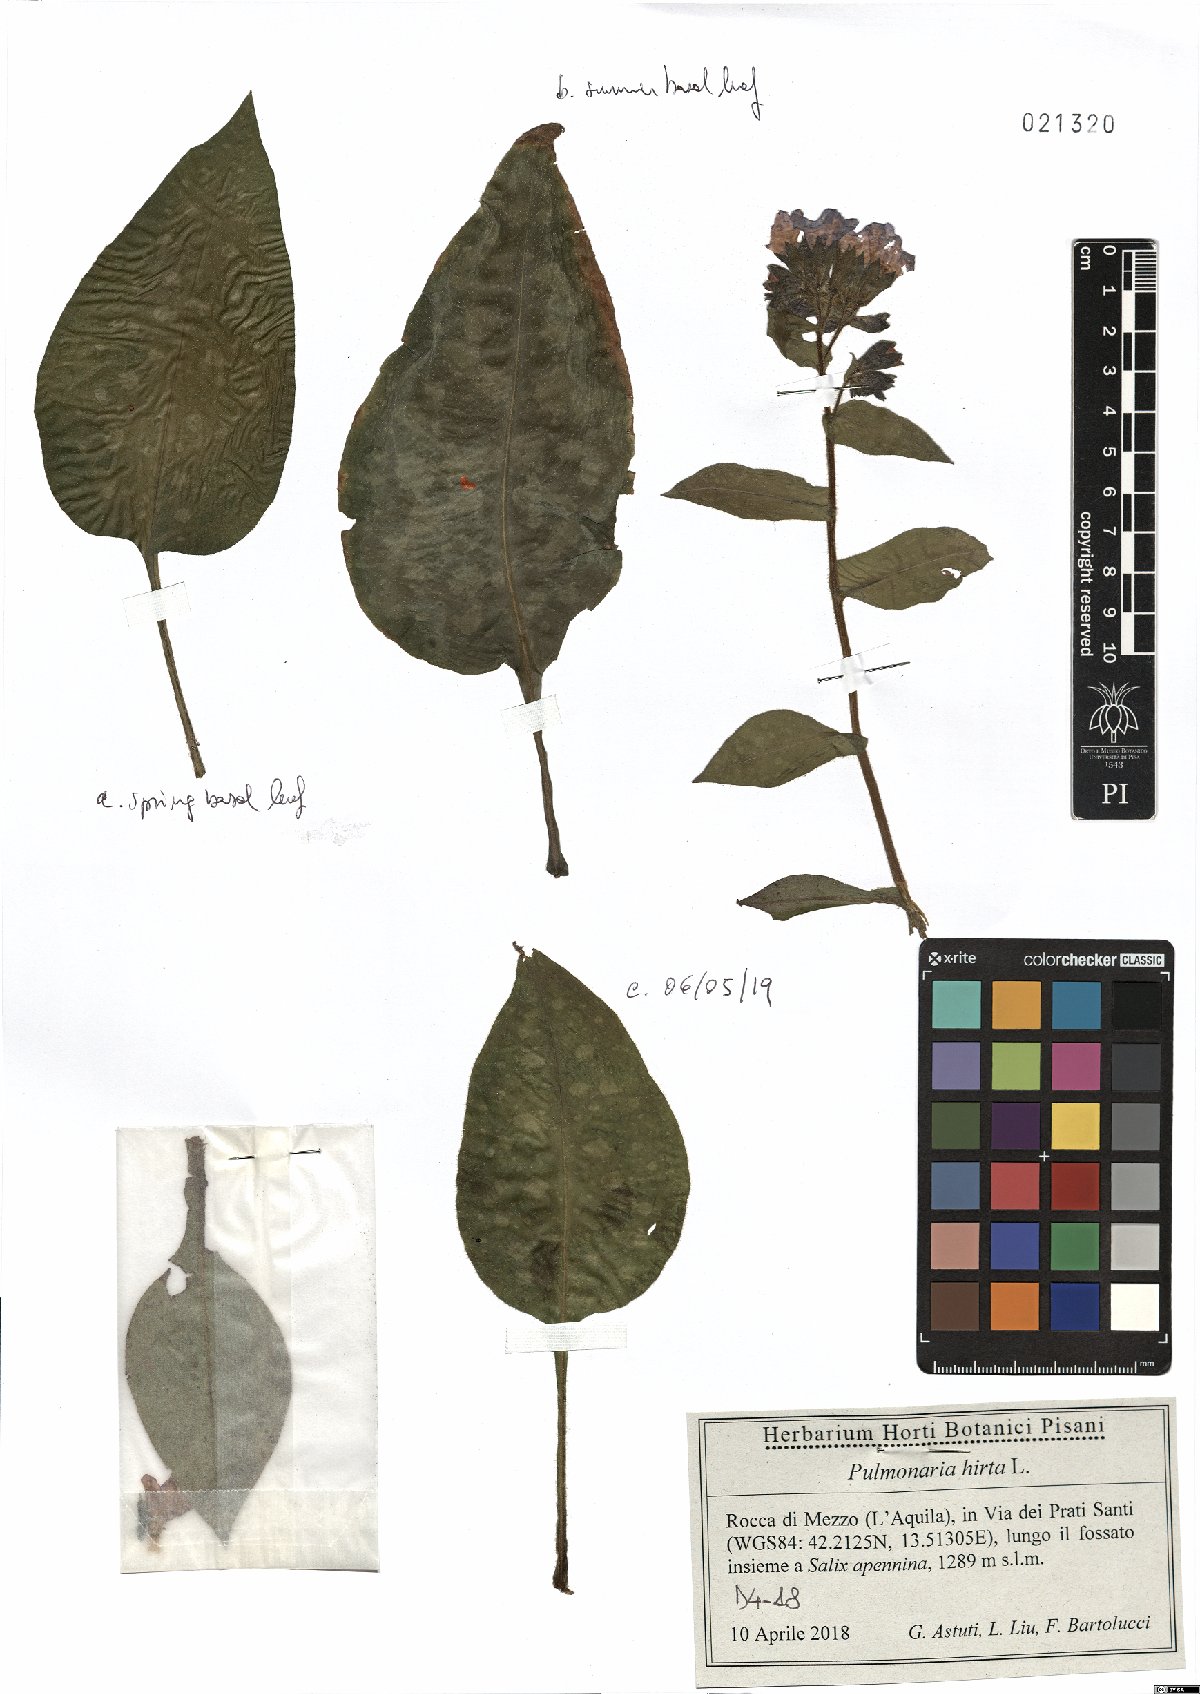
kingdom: Plantae
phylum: Tracheophyta
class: Magnoliopsida
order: Boraginales
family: Boraginaceae
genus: Pulmonaria
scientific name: Pulmonaria hirta
